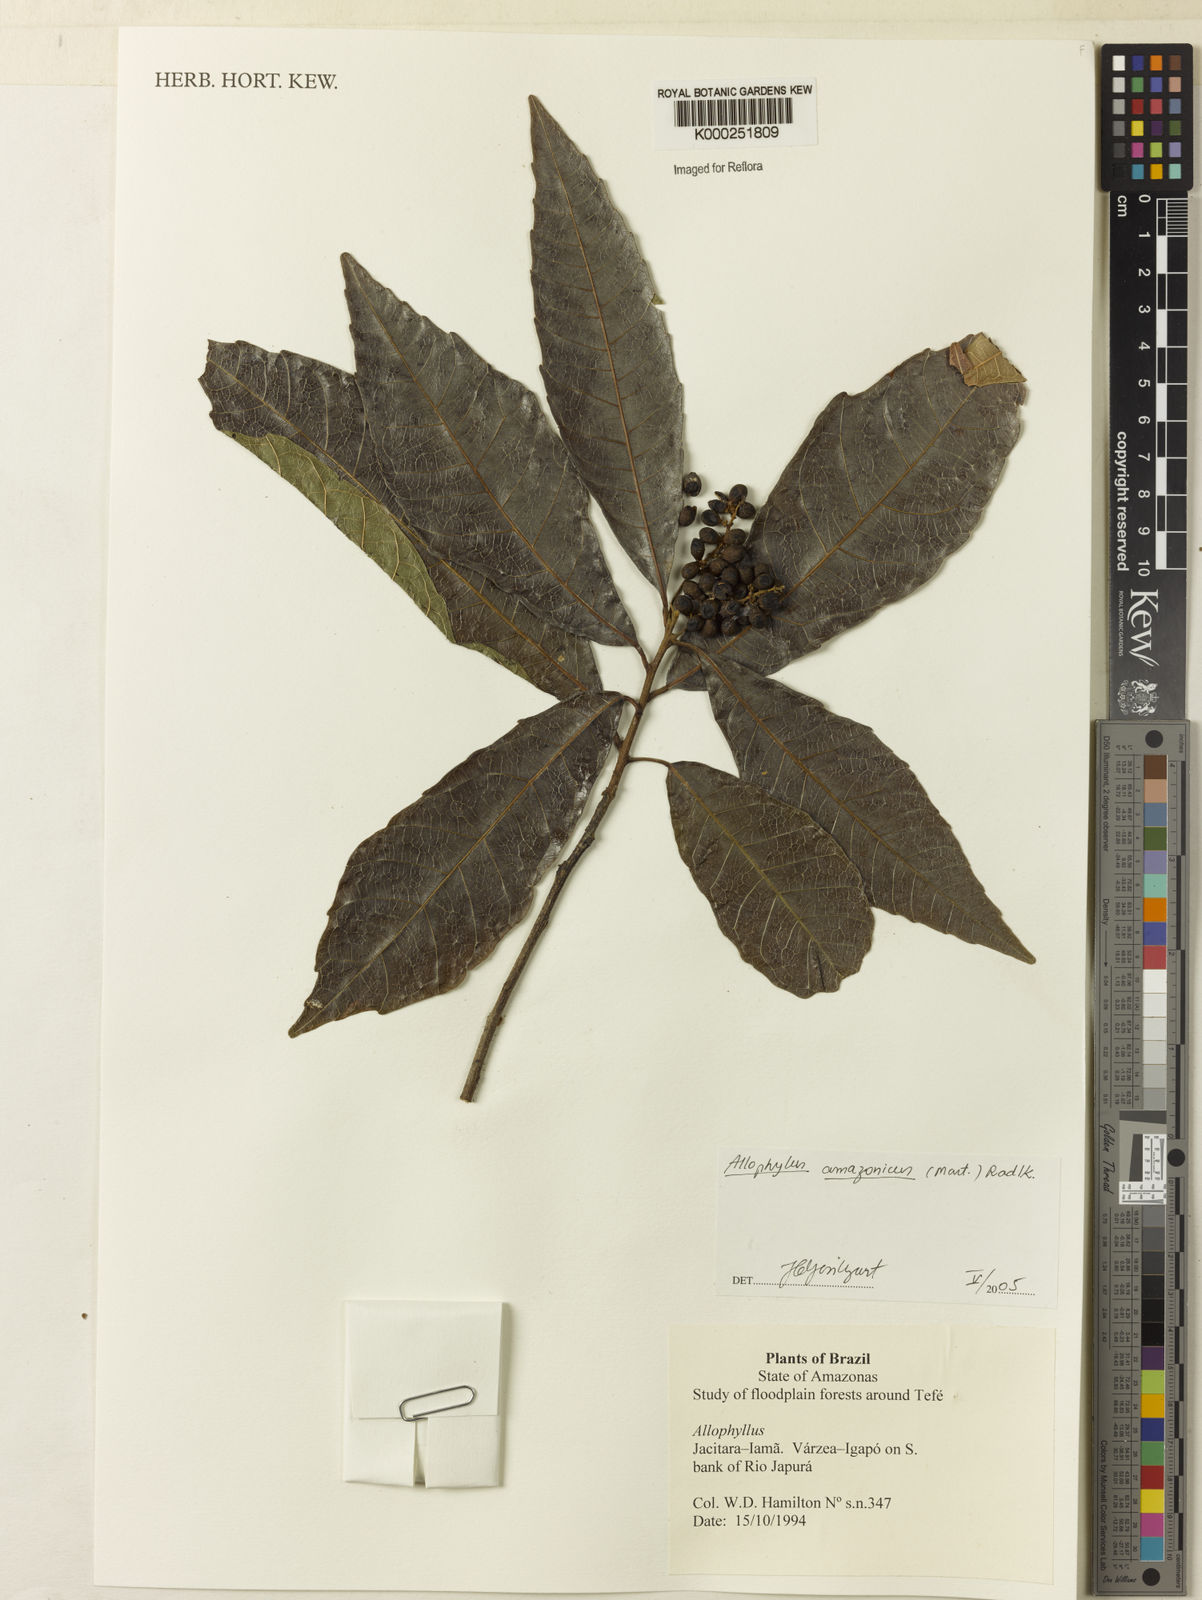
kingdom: Plantae
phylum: Tracheophyta
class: Magnoliopsida
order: Sapindales
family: Sapindaceae
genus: Allophylus
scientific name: Allophylus amazonicus
